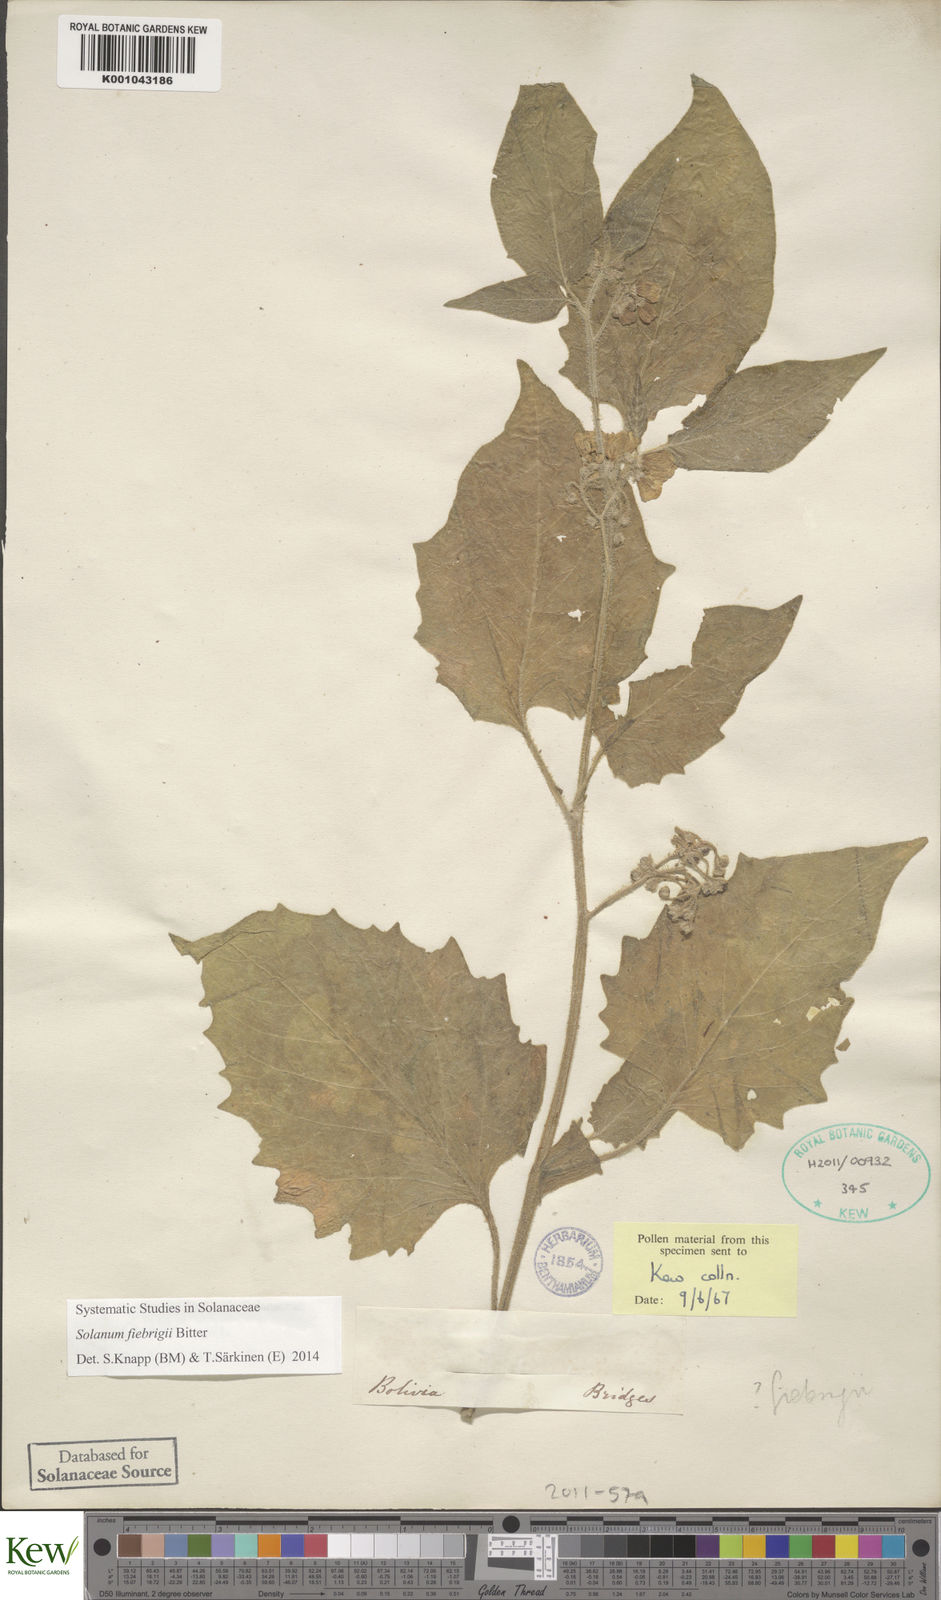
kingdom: Plantae
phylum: Tracheophyta
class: Magnoliopsida
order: Solanales
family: Solanaceae
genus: Solanum
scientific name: Solanum fiebrigii
